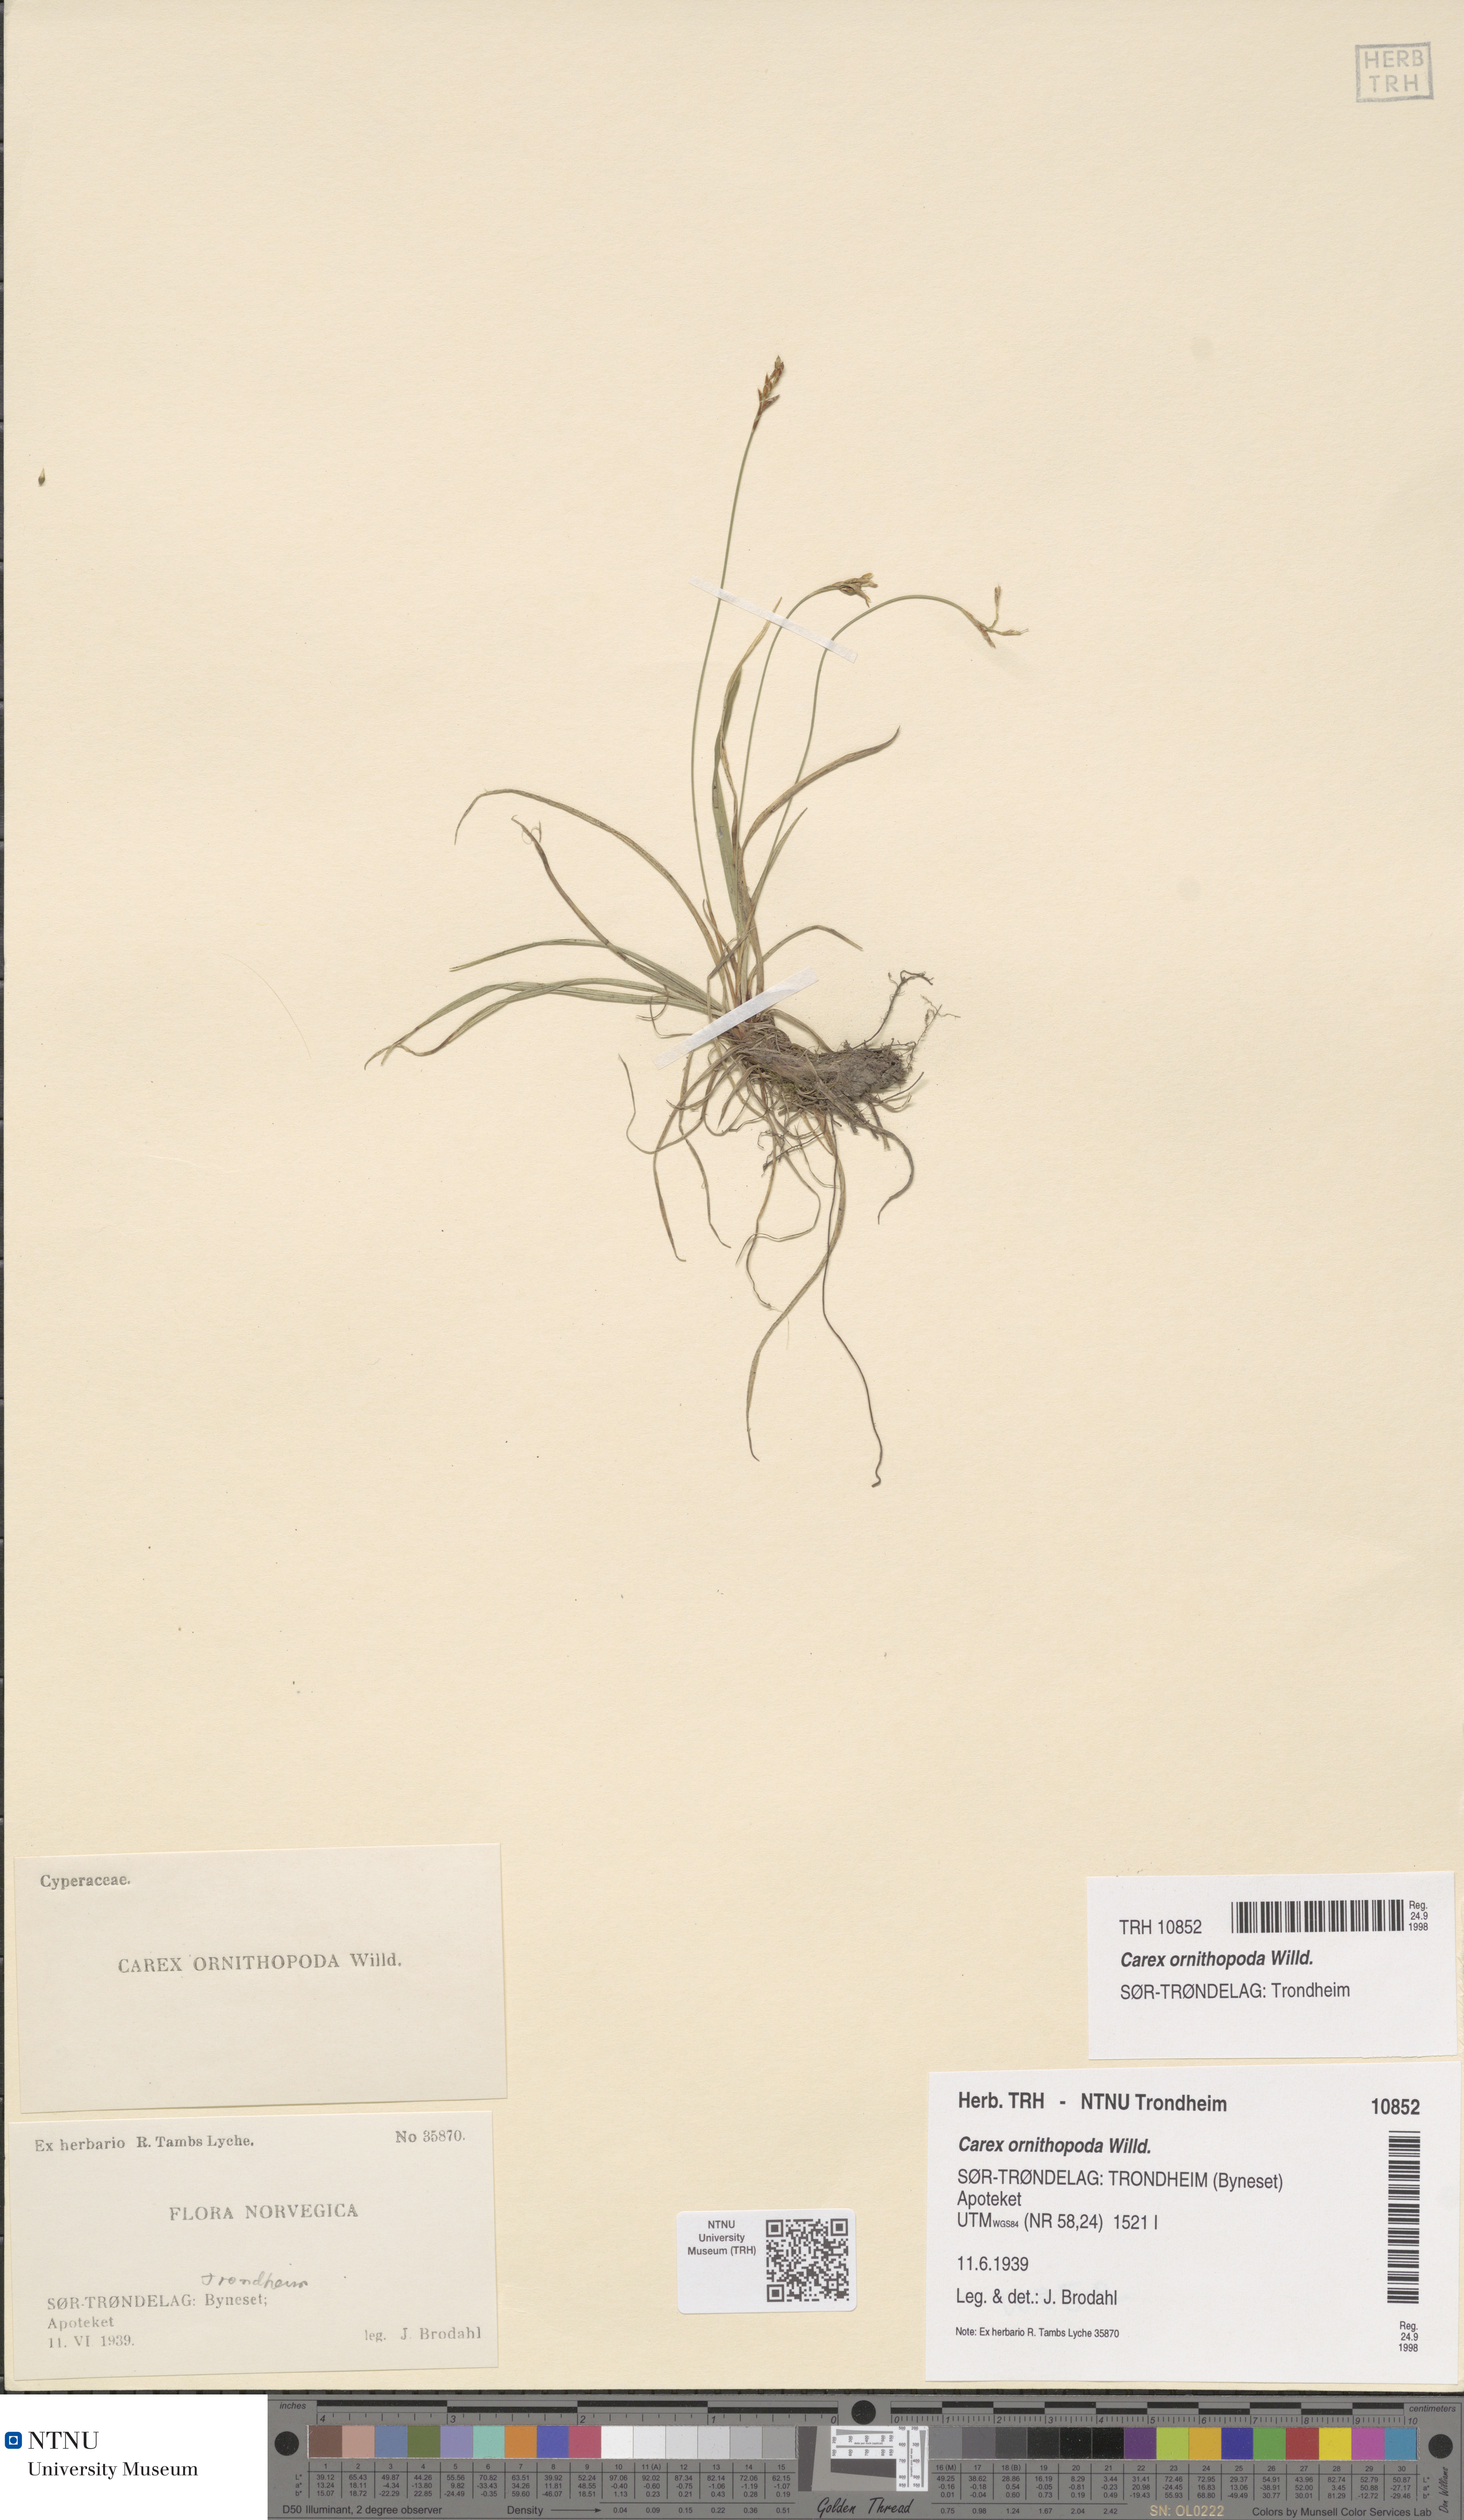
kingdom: Plantae
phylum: Tracheophyta
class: Liliopsida
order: Poales
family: Cyperaceae
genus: Carex
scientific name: Carex ornithopoda
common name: Bird's-foot sedge
